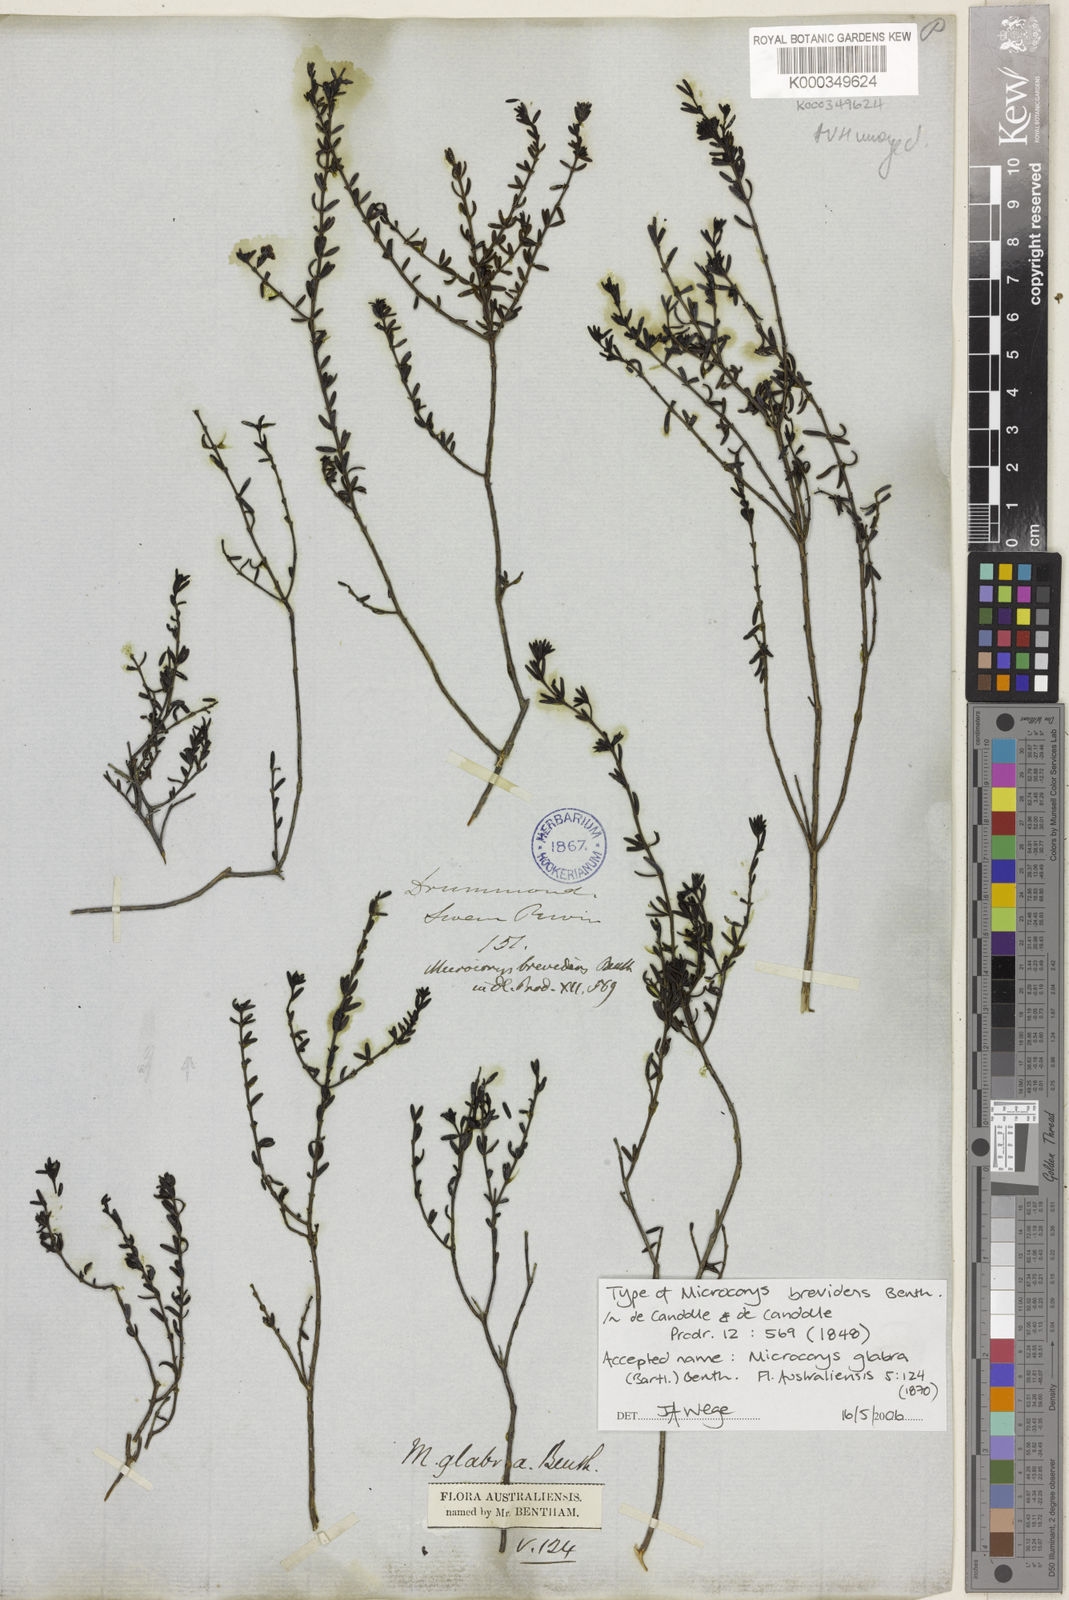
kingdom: Plantae
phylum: Tracheophyta
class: Magnoliopsida
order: Lamiales
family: Lamiaceae
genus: Microcorys
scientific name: Microcorys glabra
